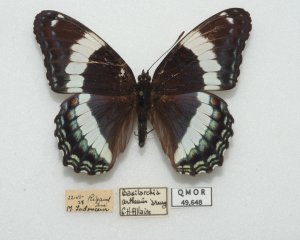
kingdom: Animalia
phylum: Arthropoda
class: Insecta
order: Lepidoptera
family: Nymphalidae
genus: Limenitis
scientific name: Limenitis arthemis
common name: Red-spotted Admiral
